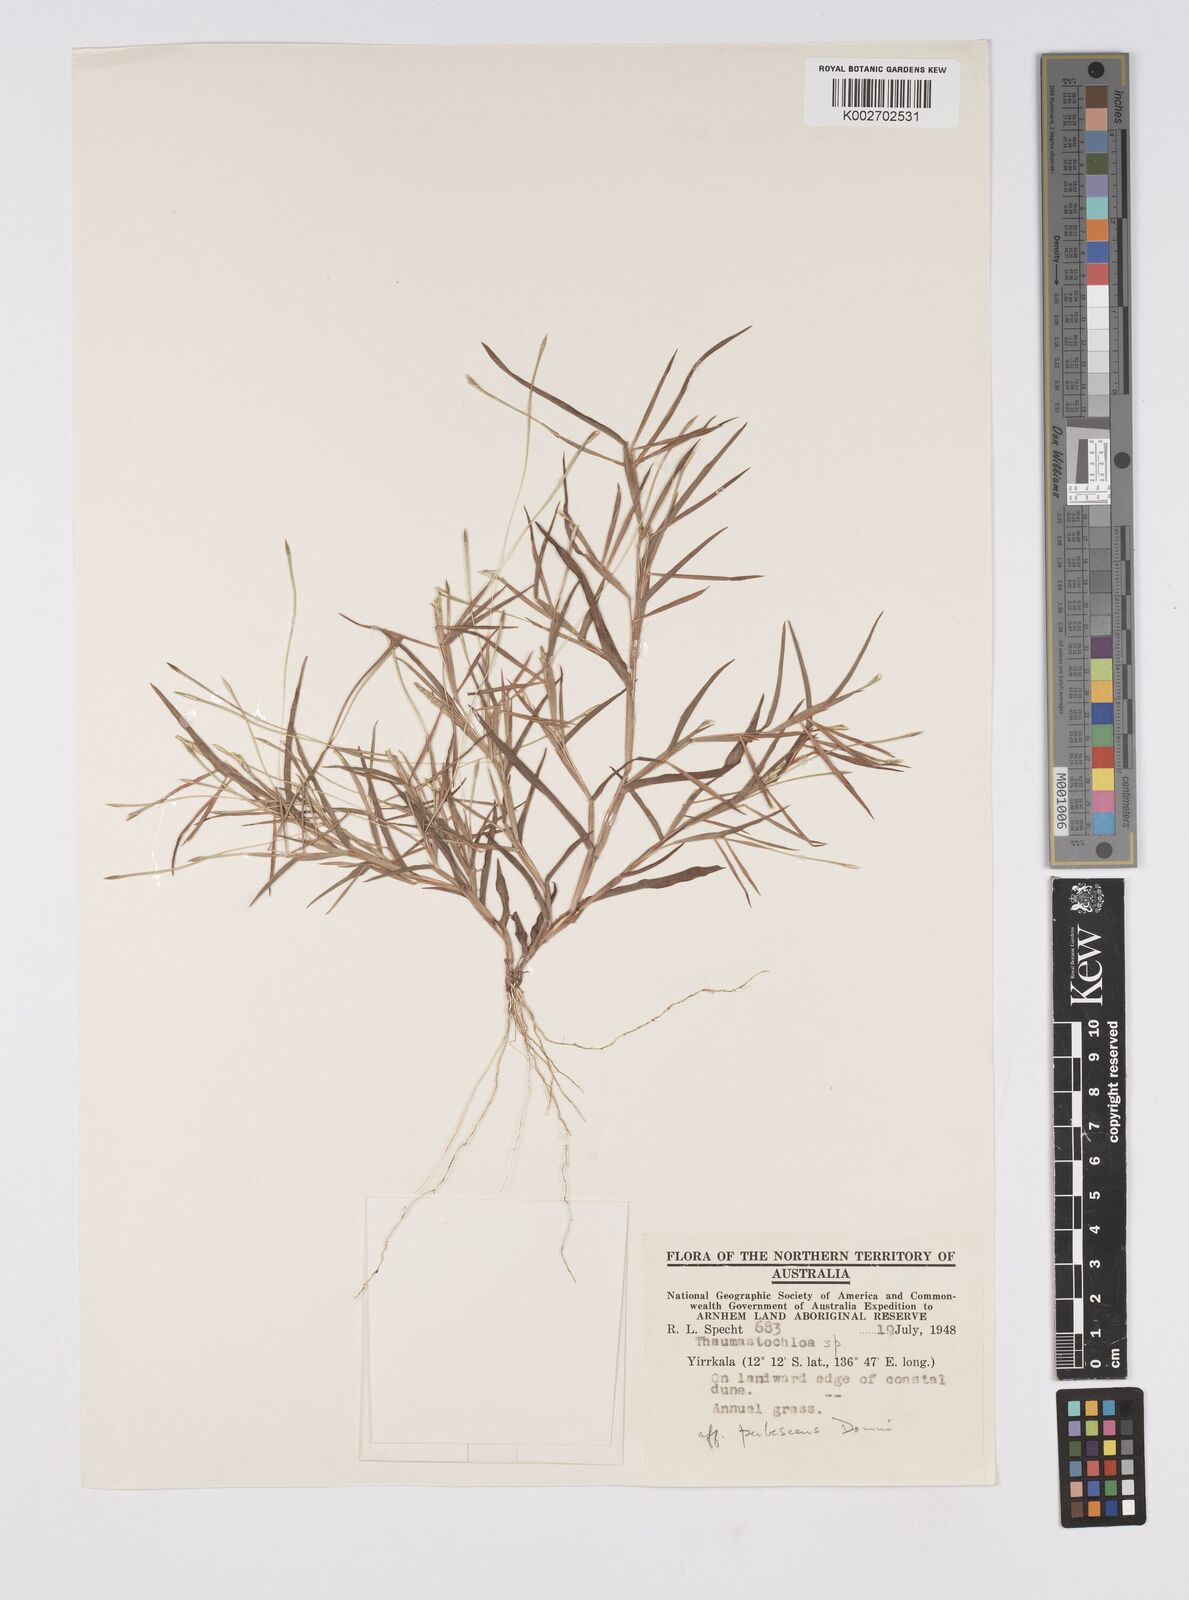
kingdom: Plantae
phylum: Tracheophyta
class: Liliopsida
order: Poales
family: Poaceae
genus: Thaumastochloa
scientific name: Thaumastochloa pubescens
